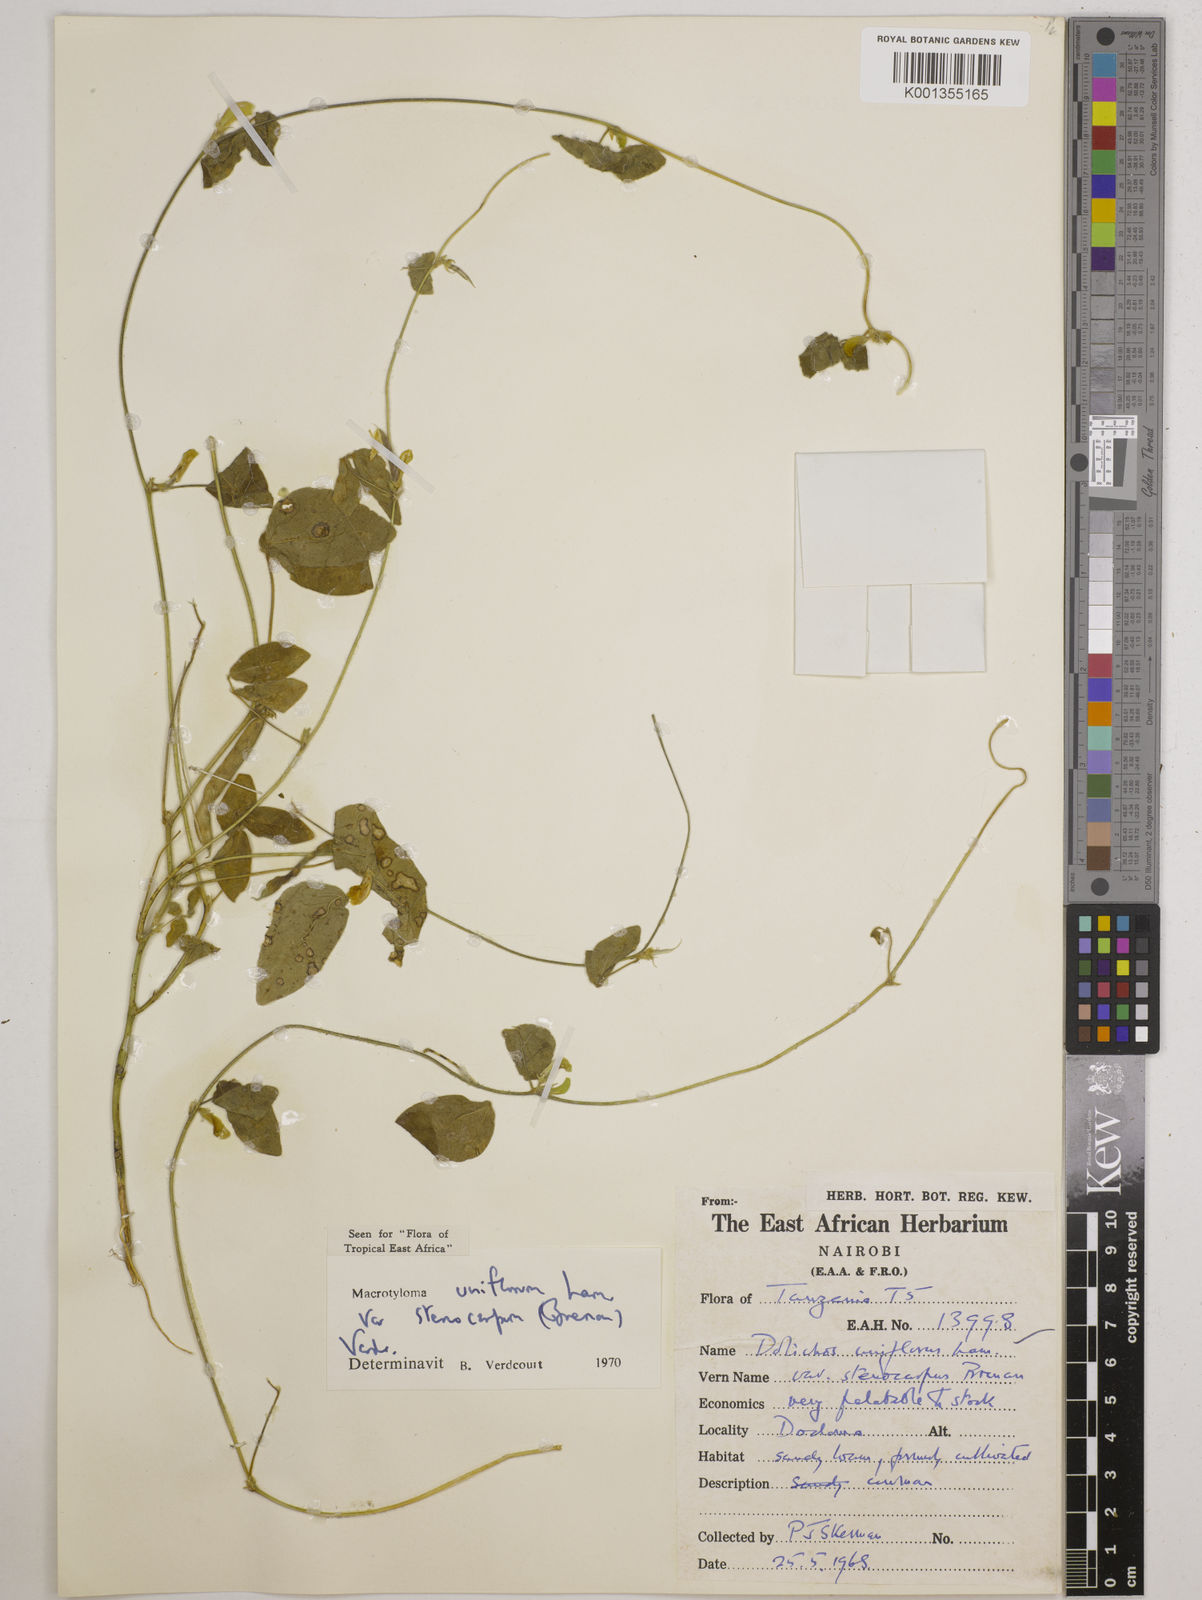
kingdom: Plantae
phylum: Tracheophyta
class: Magnoliopsida
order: Fabales
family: Fabaceae
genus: Macrotyloma
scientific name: Macrotyloma
